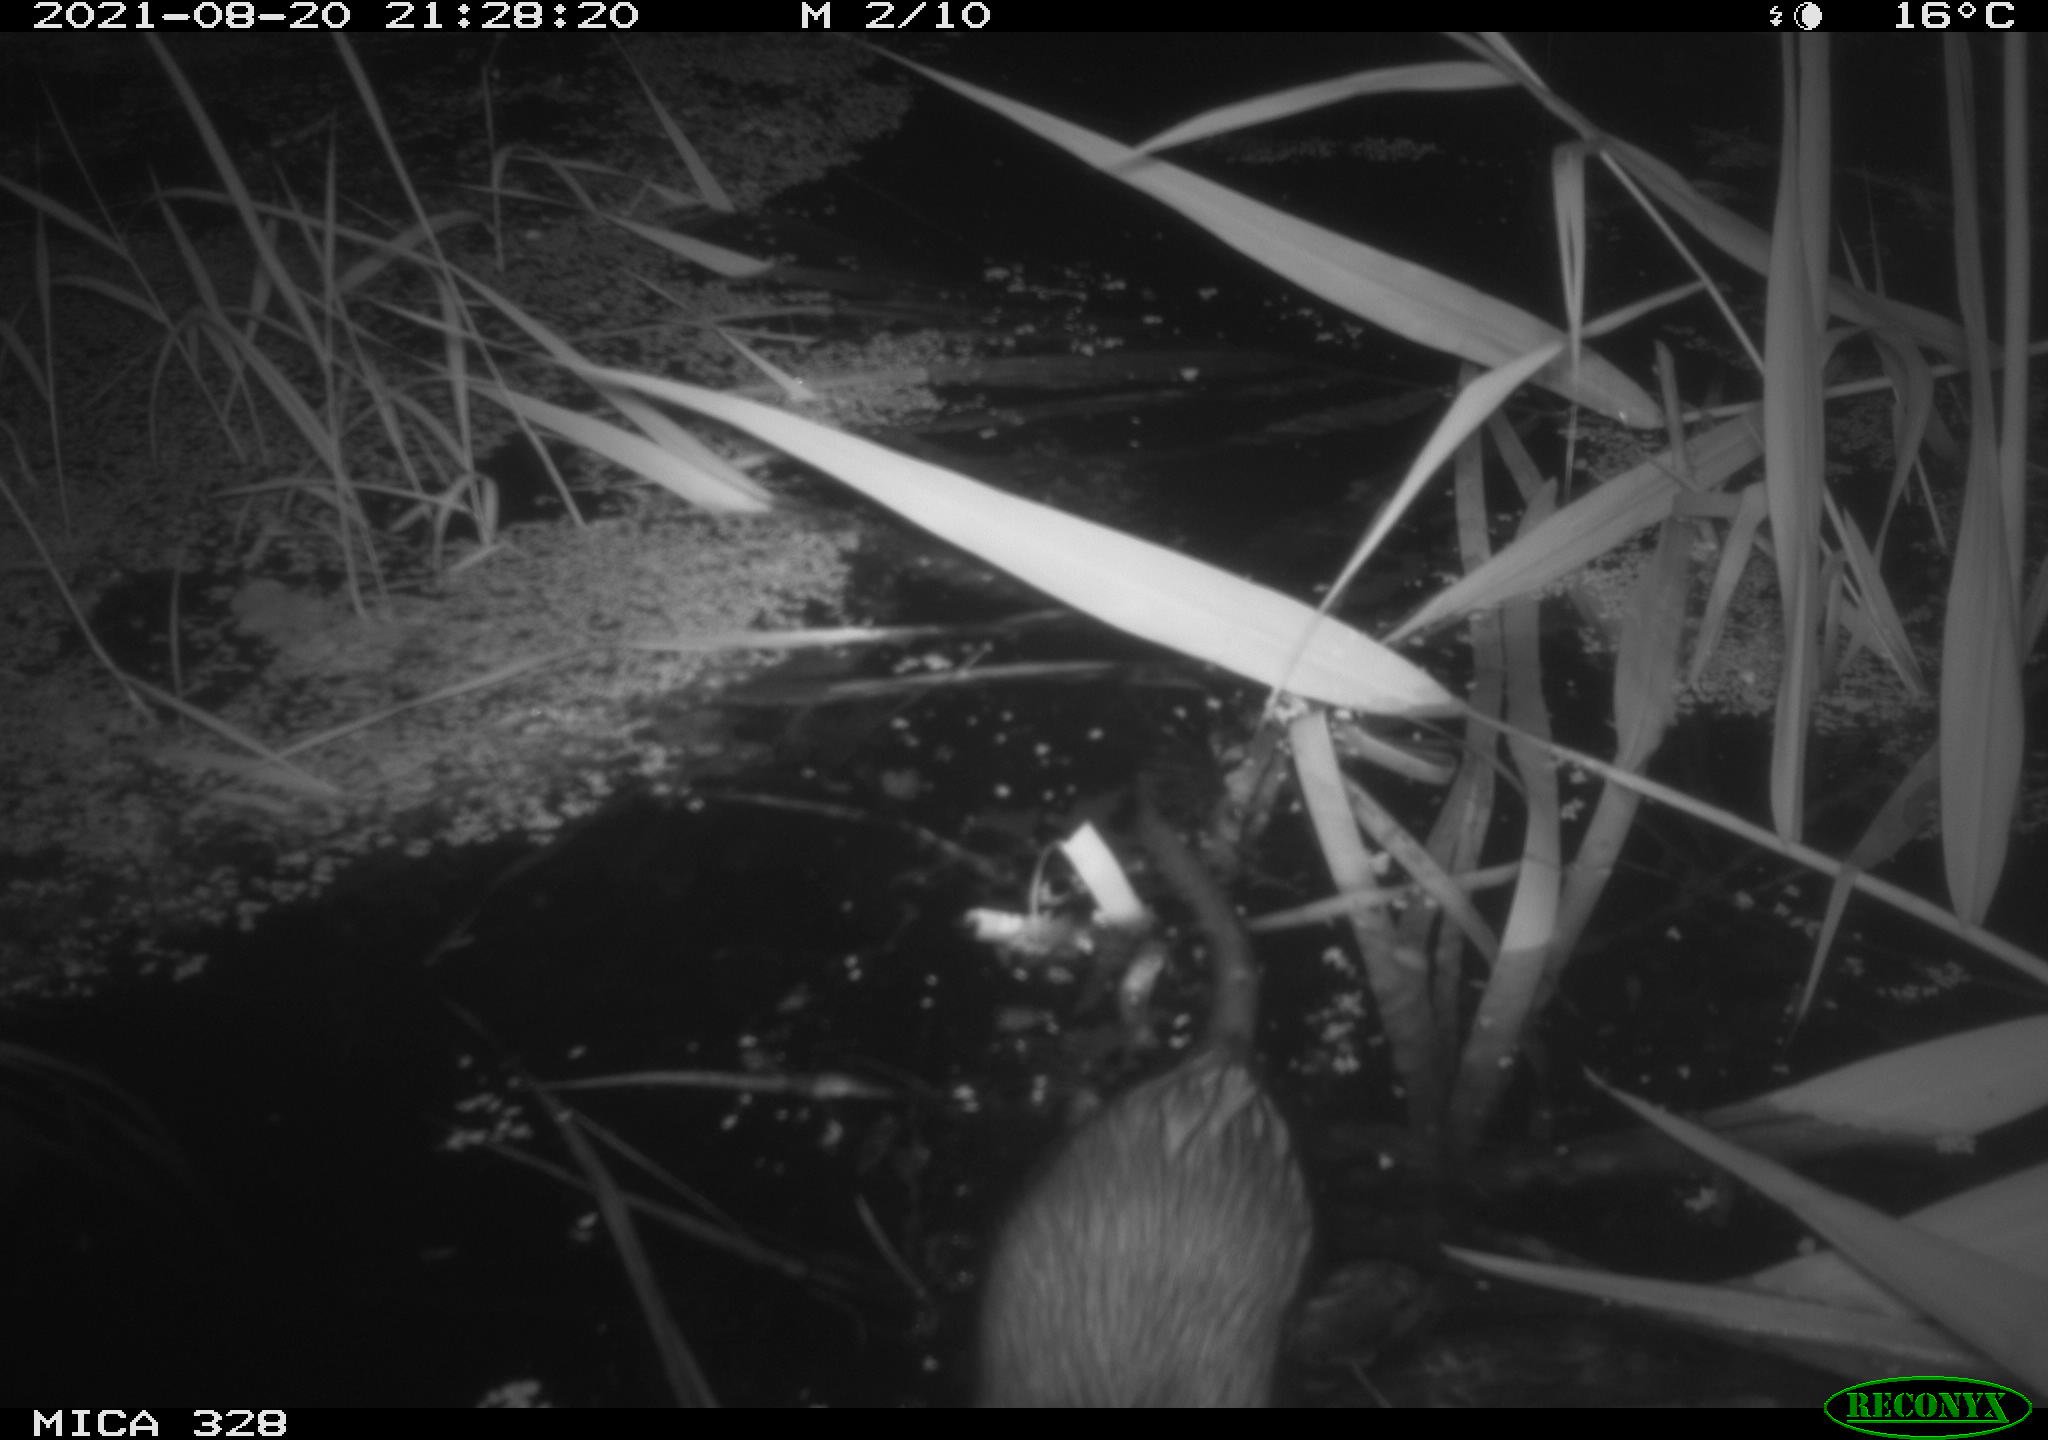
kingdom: Animalia
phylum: Chordata
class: Mammalia
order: Rodentia
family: Cricetidae
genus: Ondatra
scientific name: Ondatra zibethicus
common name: Muskrat
